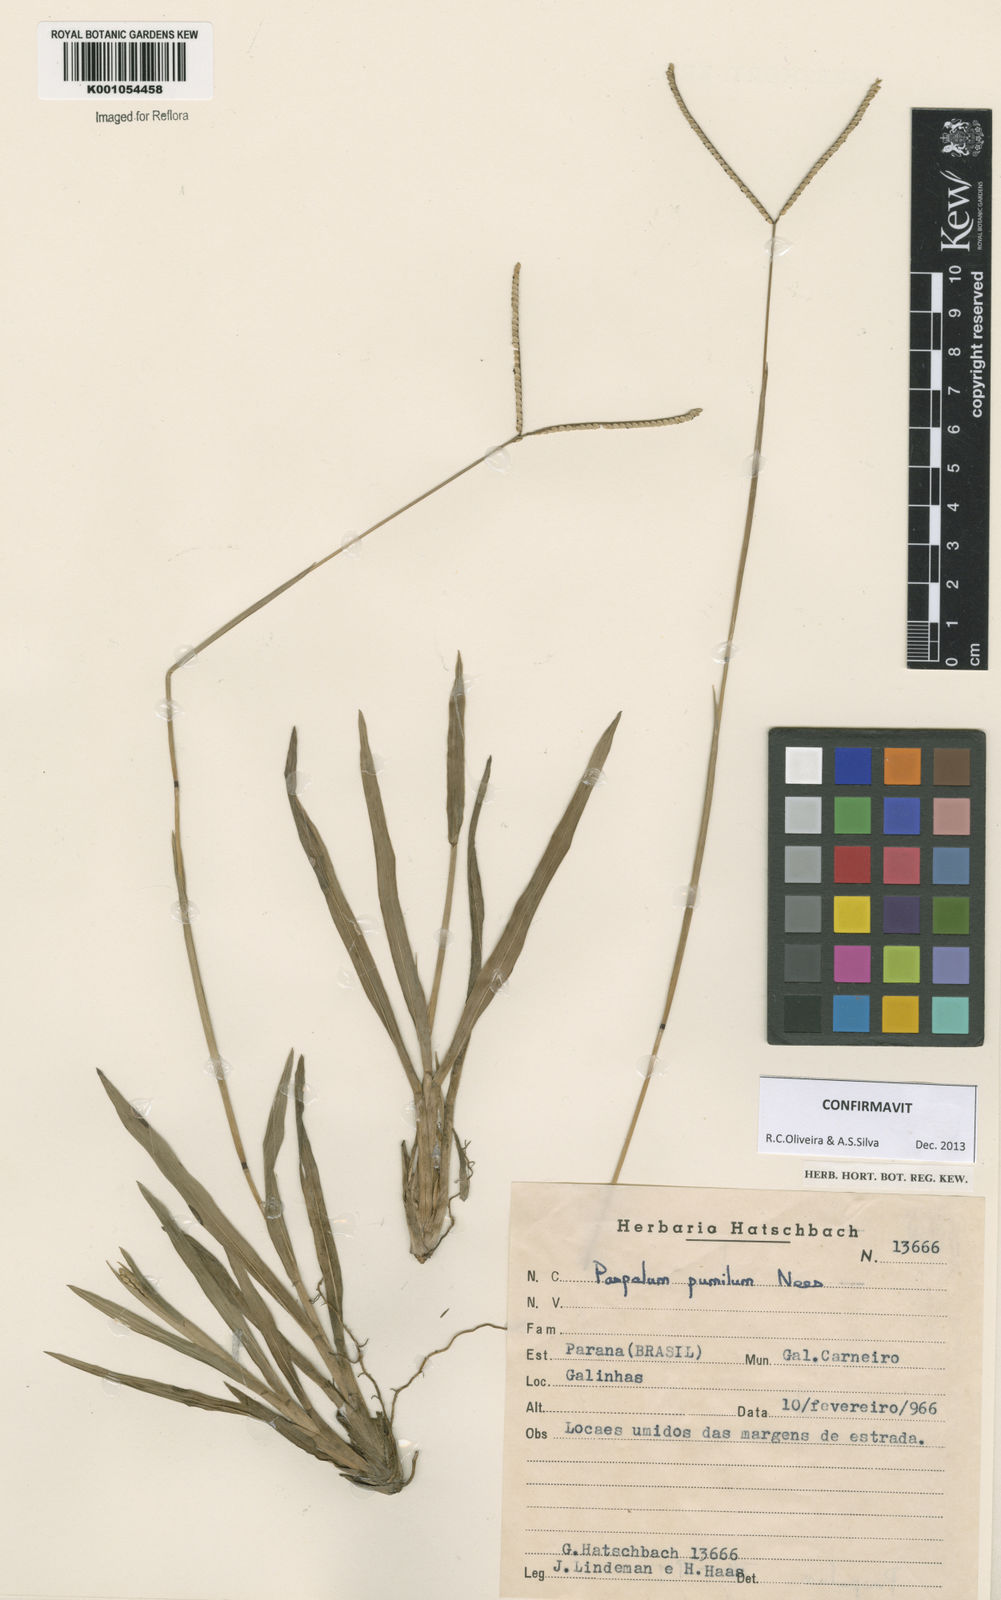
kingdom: Plantae
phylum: Tracheophyta
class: Liliopsida
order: Poales
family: Poaceae
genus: Paspalum
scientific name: Paspalum pumilum
